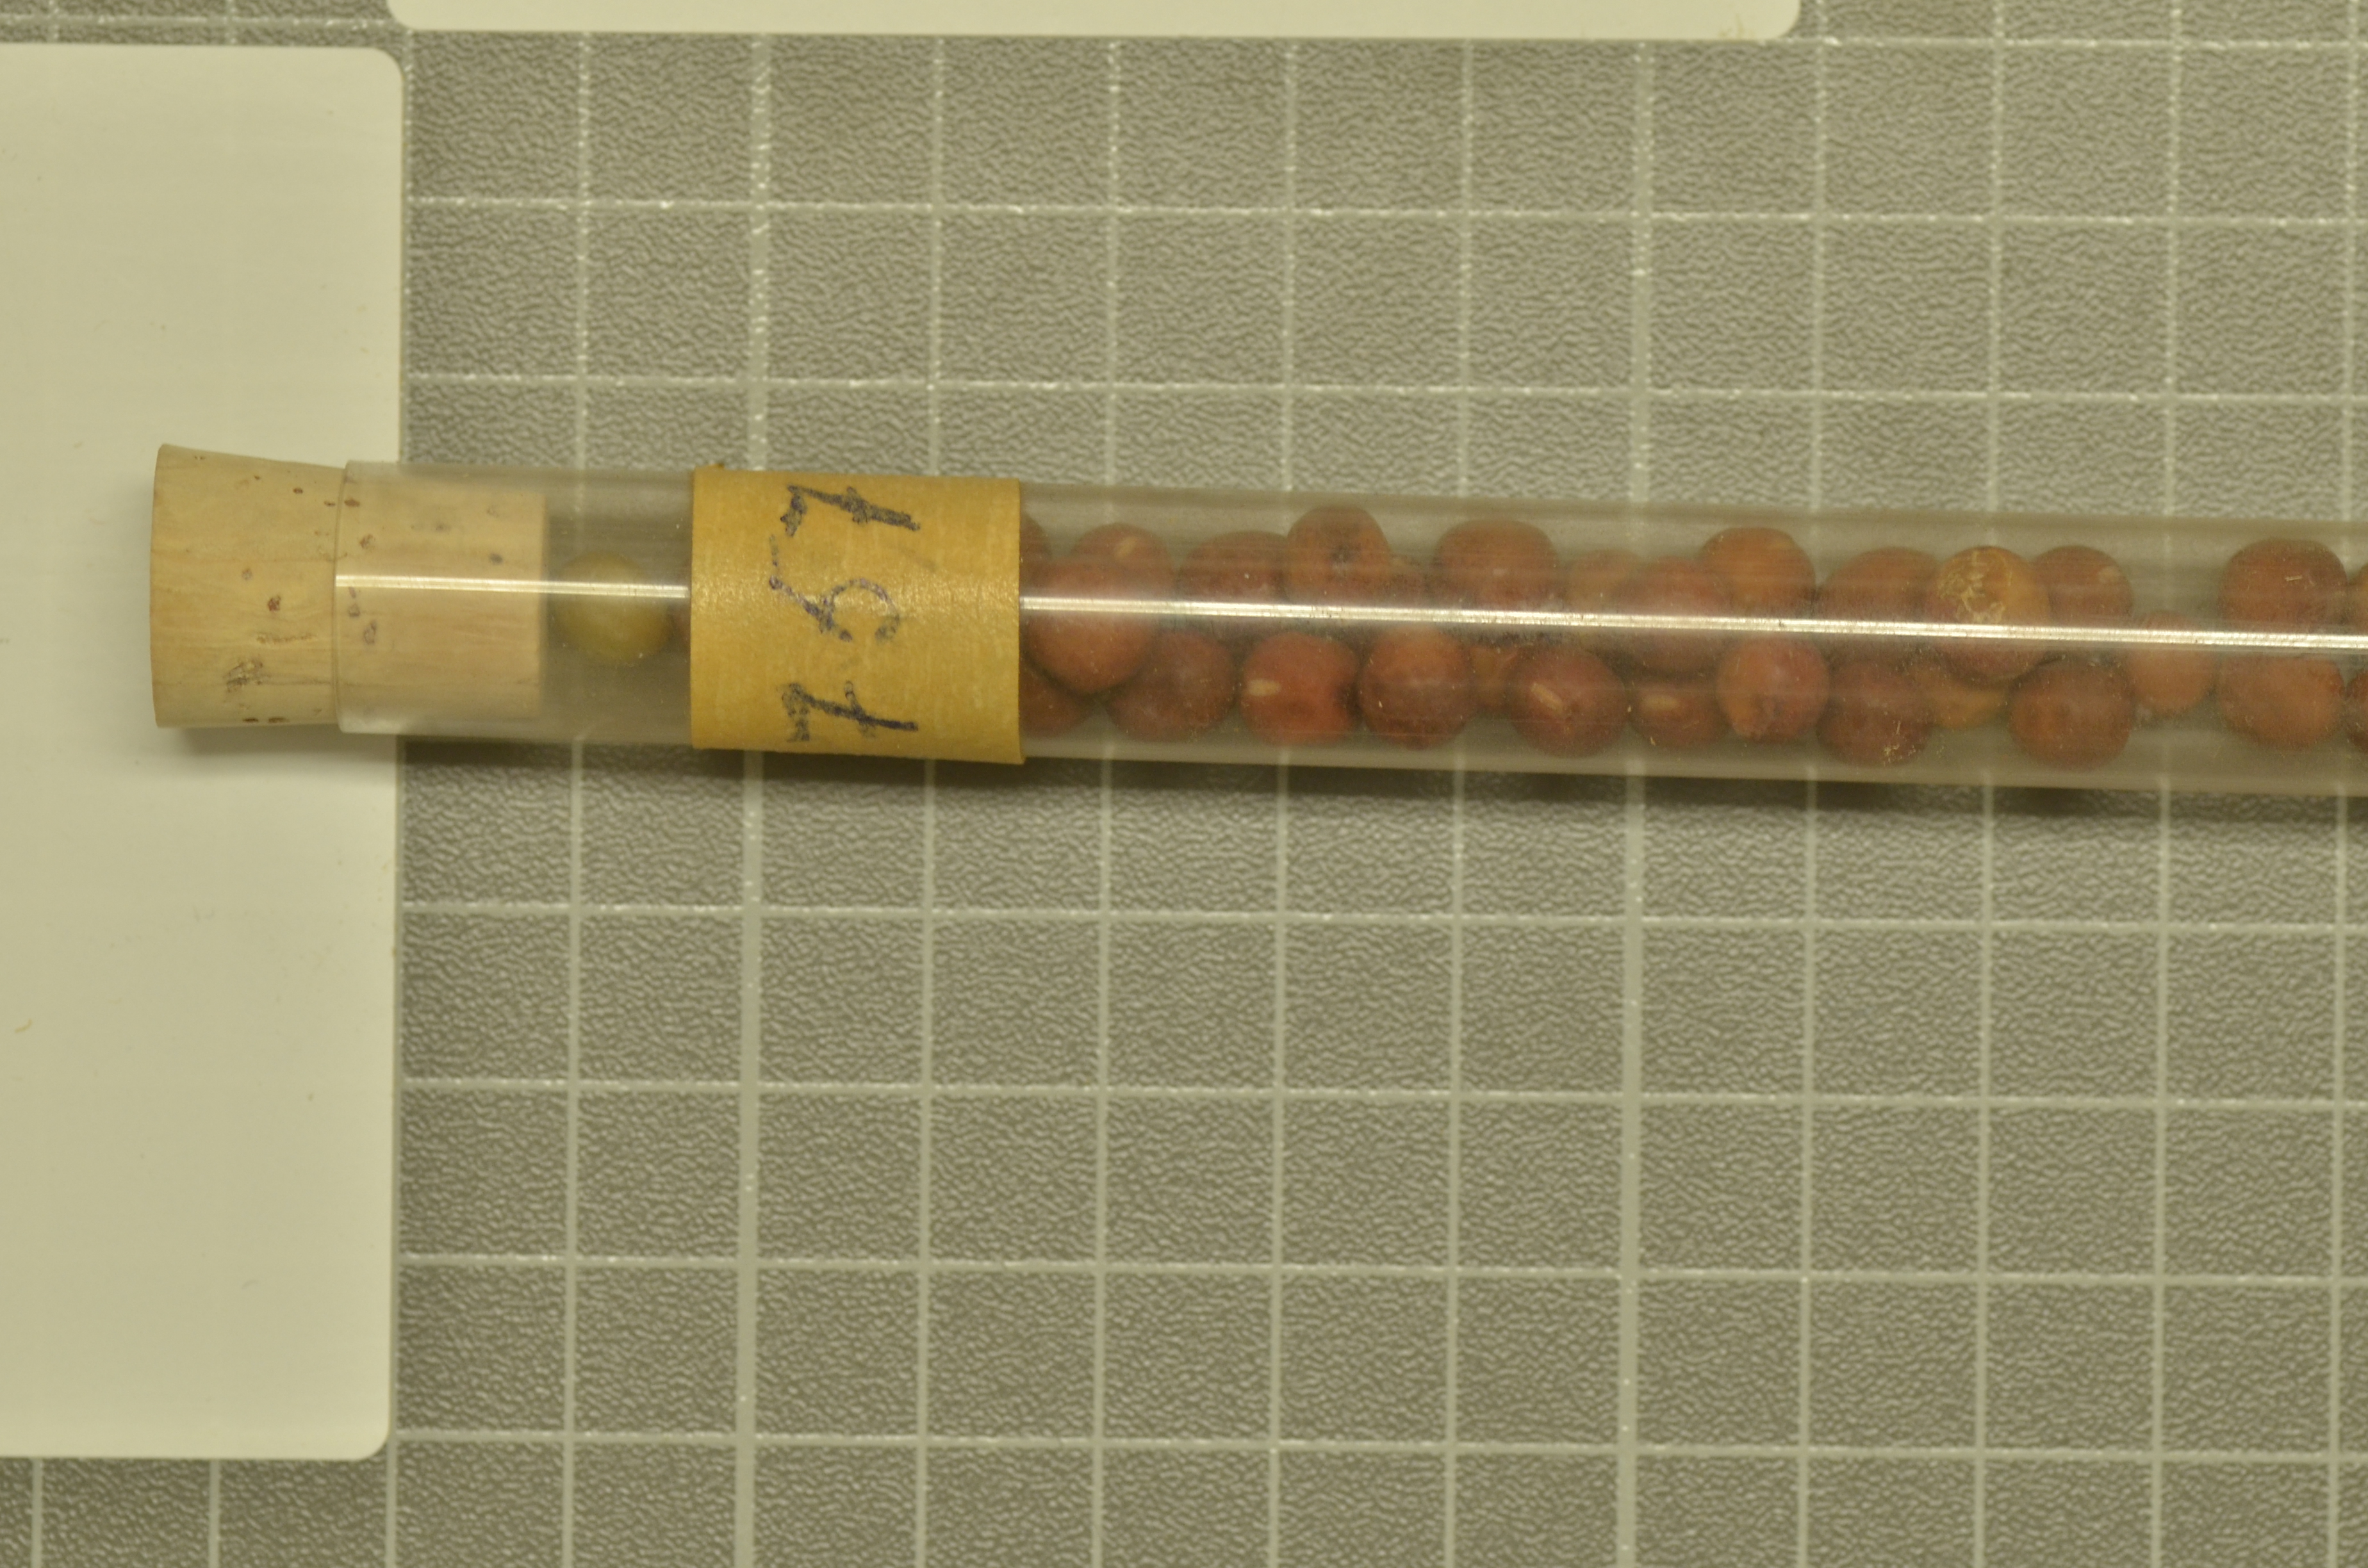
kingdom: Plantae
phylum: Tracheophyta
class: Magnoliopsida
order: Fabales
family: Fabaceae
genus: Lathyrus
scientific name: Lathyrus oleraceus
